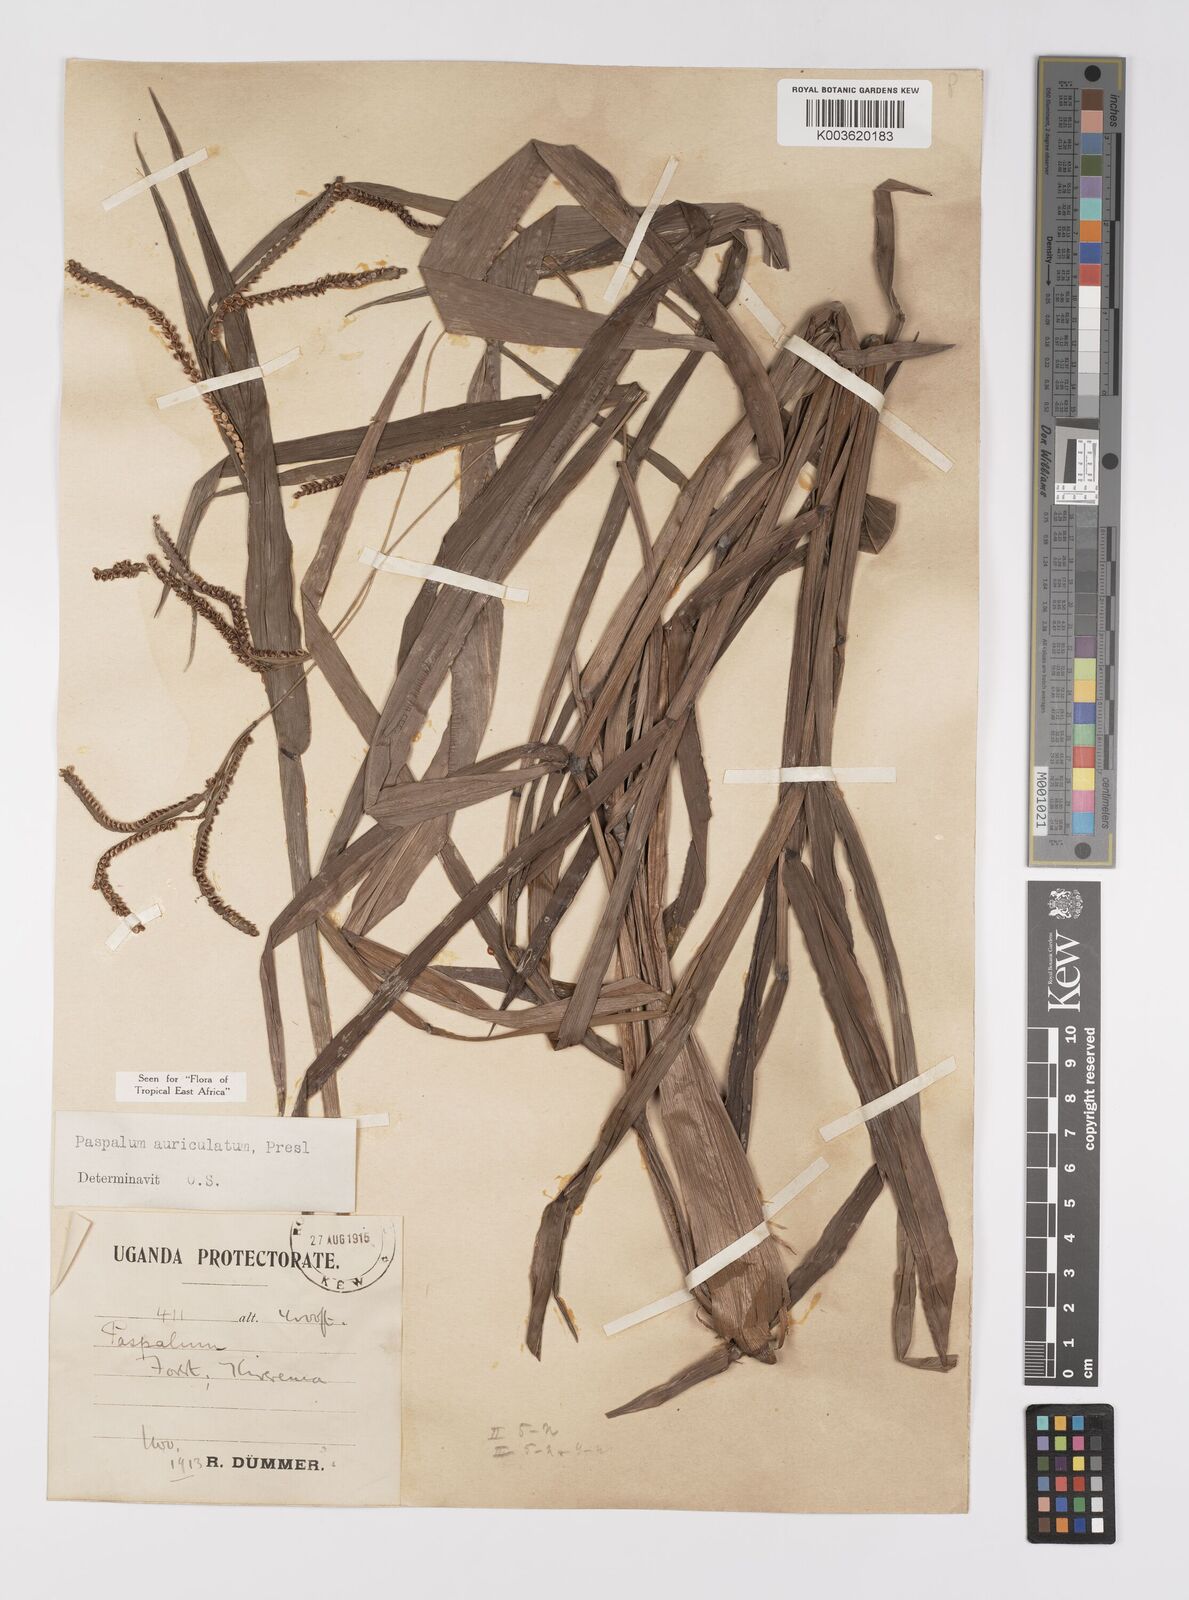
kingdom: Plantae
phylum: Tracheophyta
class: Liliopsida
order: Poales
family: Poaceae
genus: Paspalum
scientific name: Paspalum lamprocaryon
